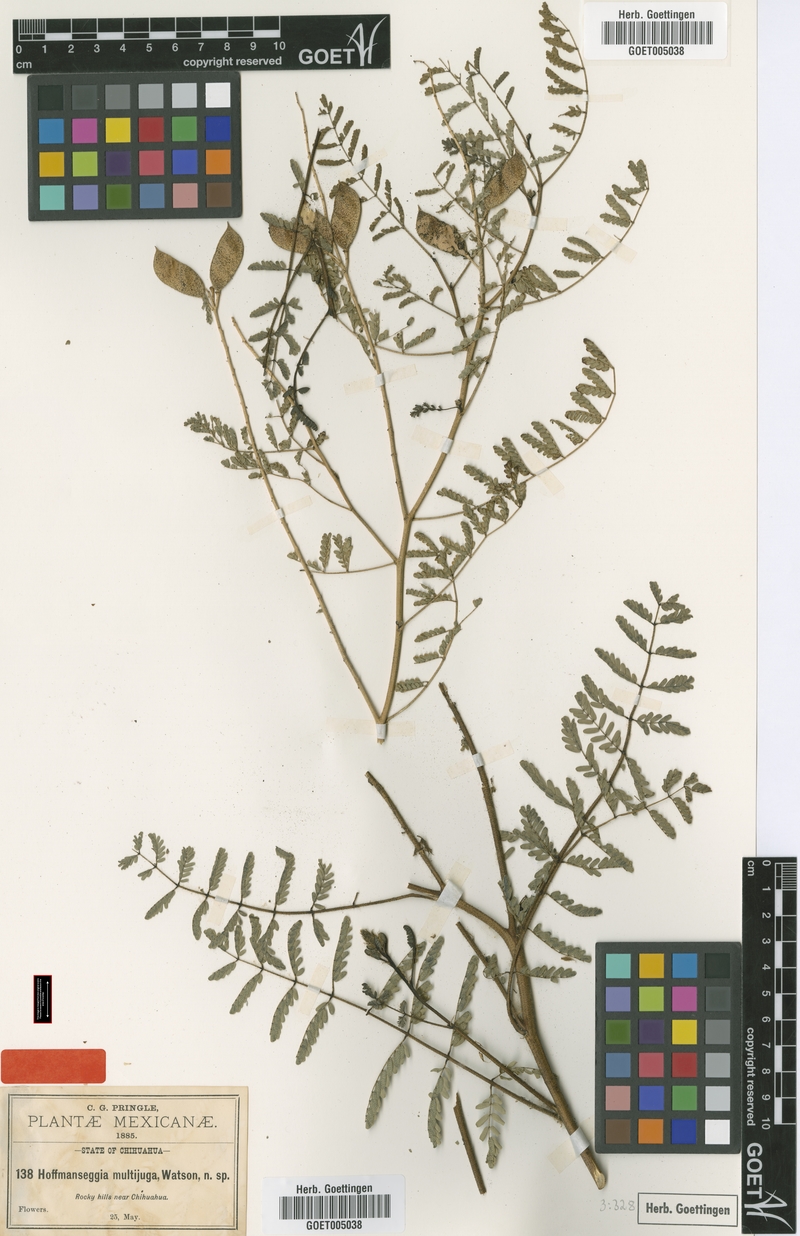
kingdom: Plantae
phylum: Tracheophyta
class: Magnoliopsida
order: Fabales
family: Fabaceae
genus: Pomaria
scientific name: Pomaria multijuga
